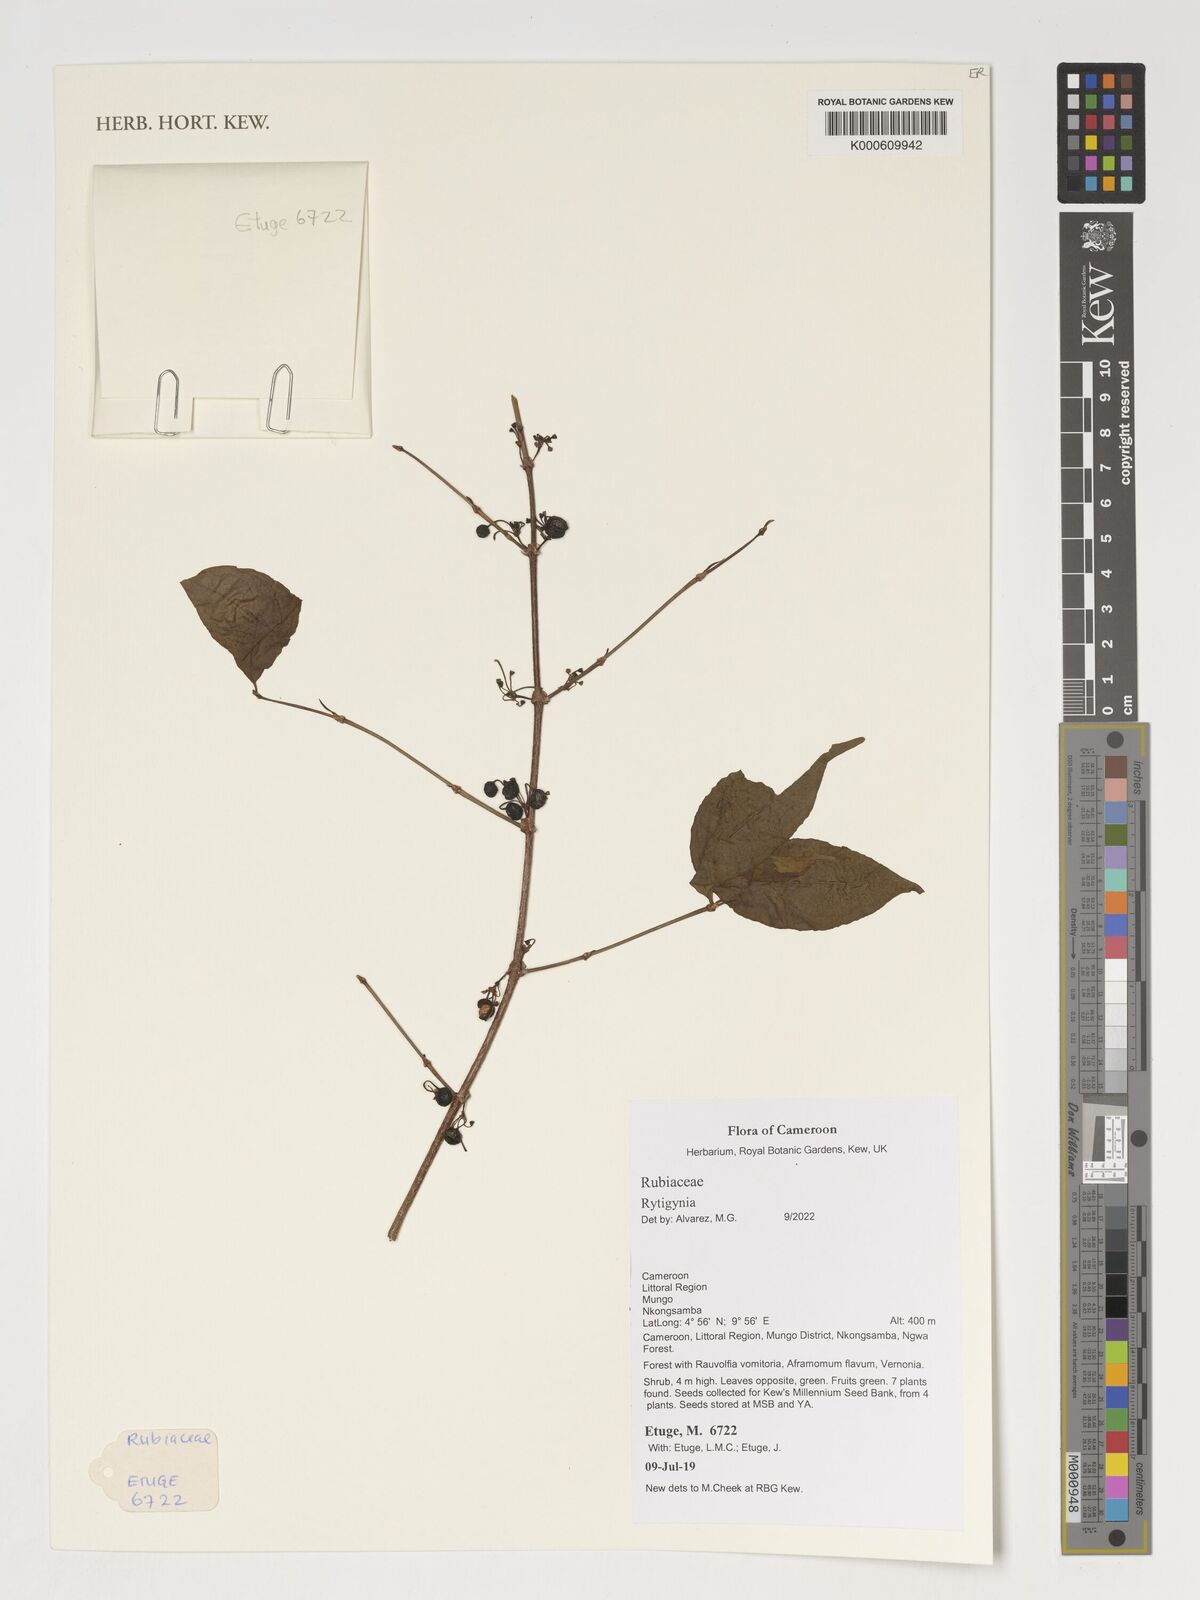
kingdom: Plantae
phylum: Tracheophyta
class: Magnoliopsida
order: Gentianales
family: Rubiaceae
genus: Rytigynia
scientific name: Rytigynia
